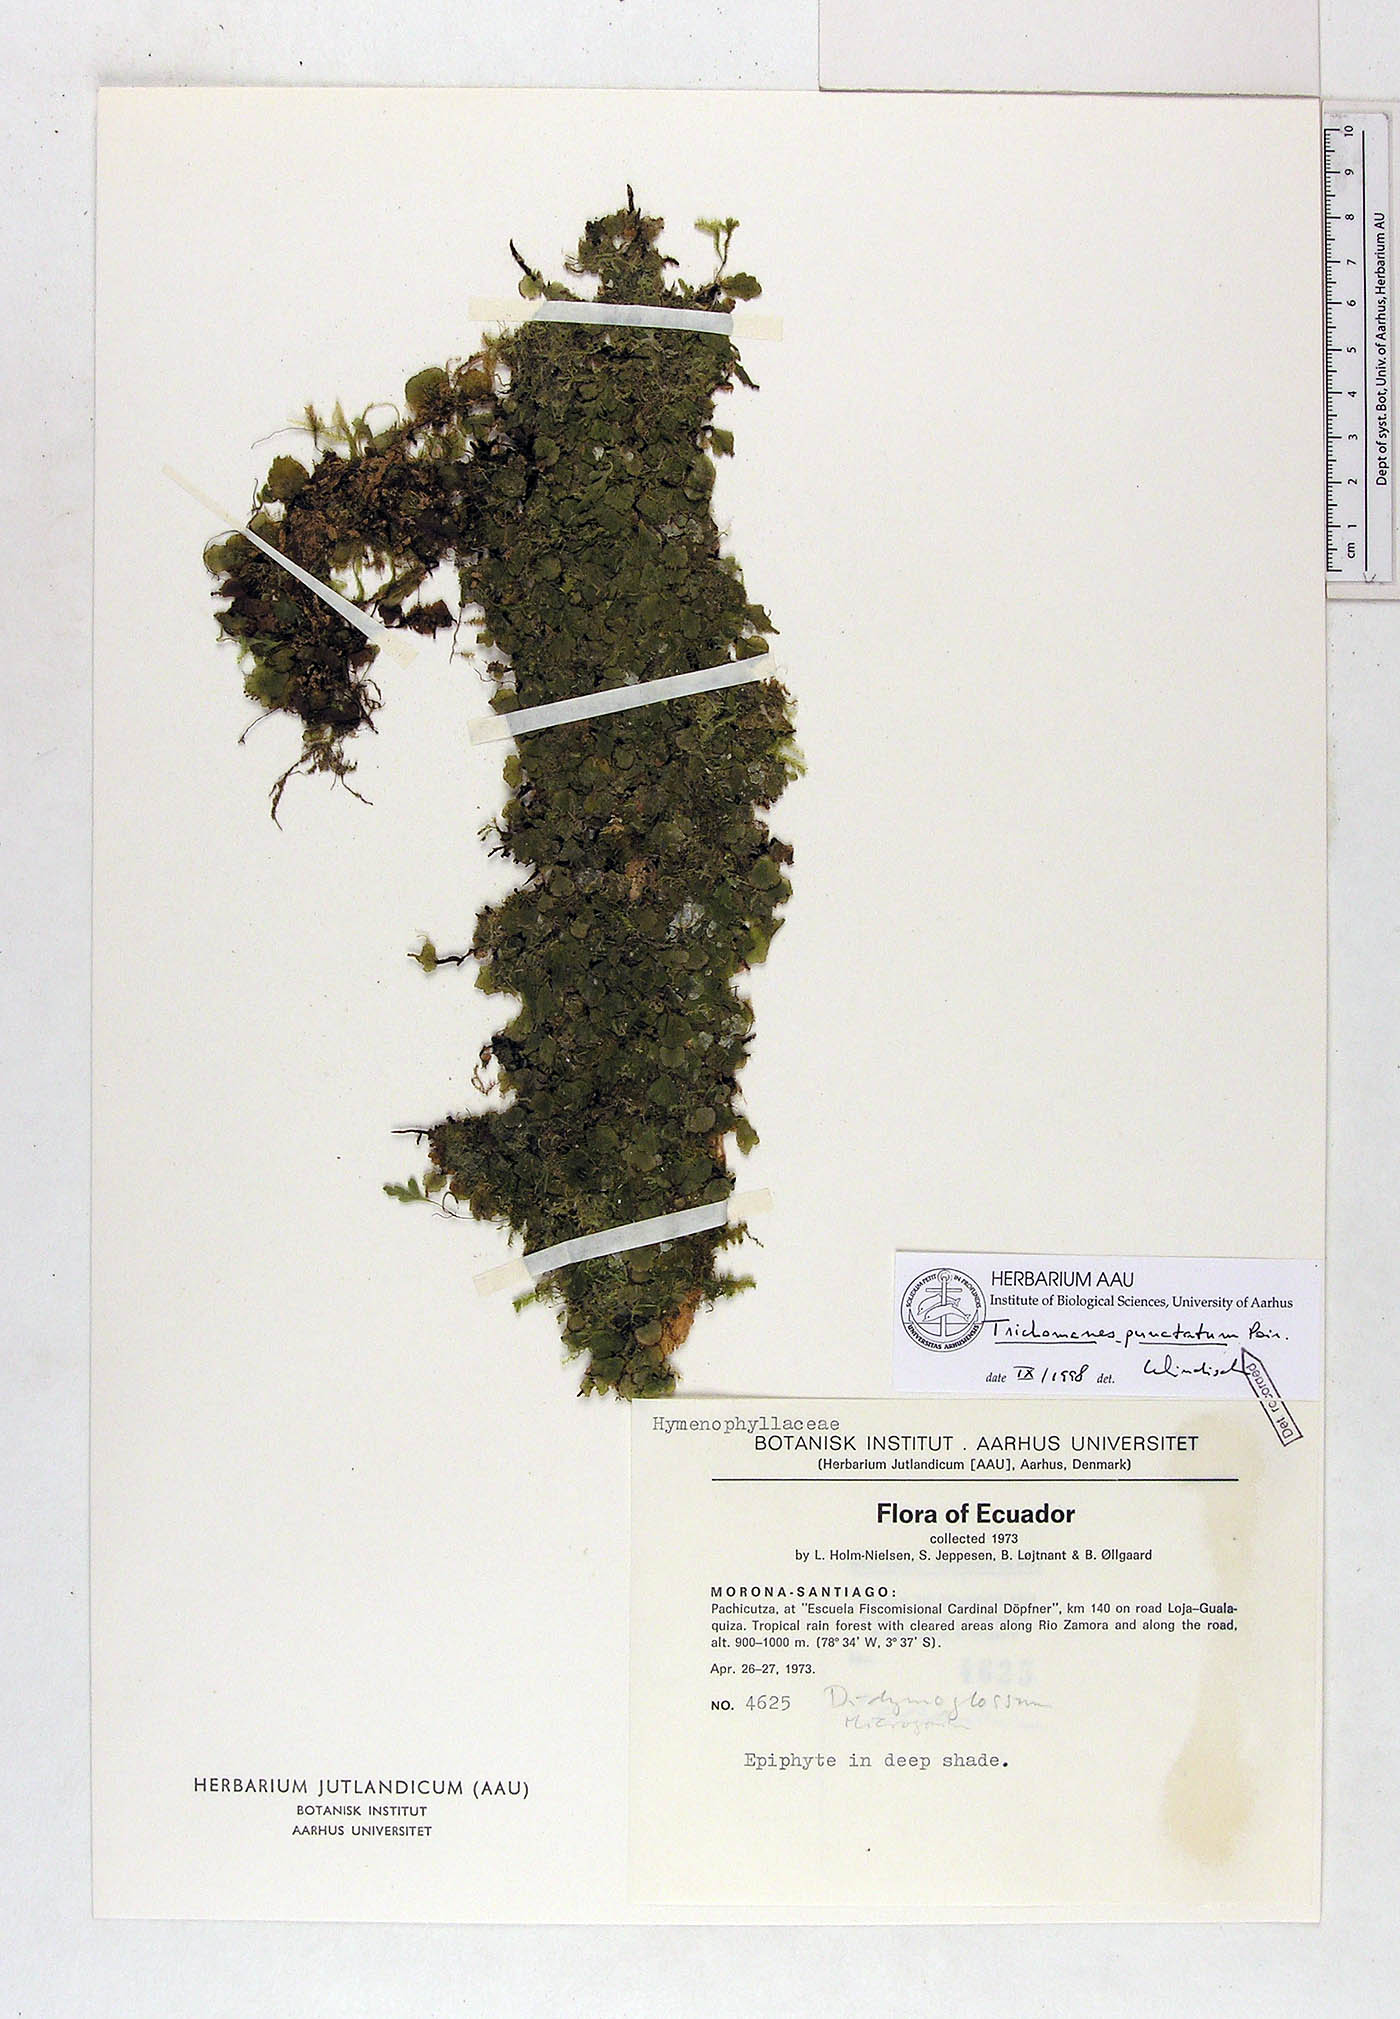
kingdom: Plantae
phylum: Tracheophyta
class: Polypodiopsida
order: Hymenophyllales
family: Hymenophyllaceae
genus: Didymoglossum
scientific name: Didymoglossum punctatum
